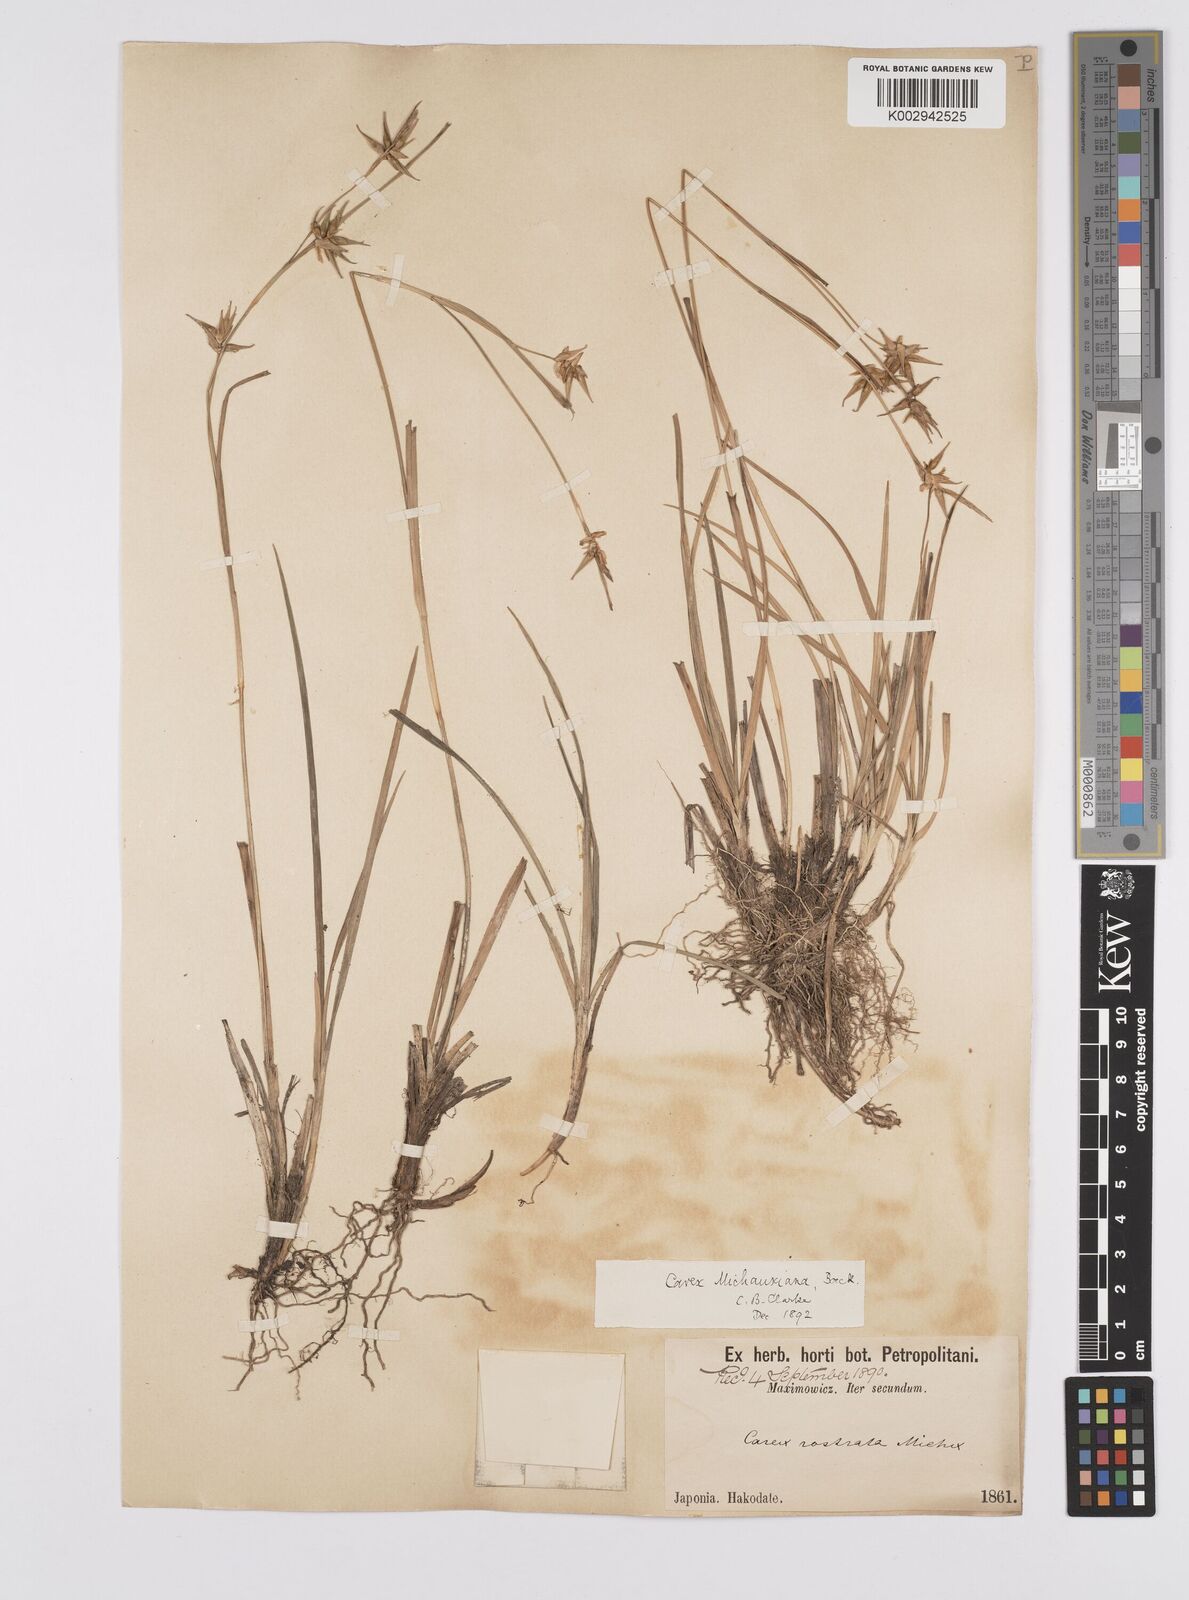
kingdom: Plantae
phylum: Tracheophyta
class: Liliopsida
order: Poales
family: Cyperaceae
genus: Carex
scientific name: Carex michauxiana
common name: Michaux's sedge
